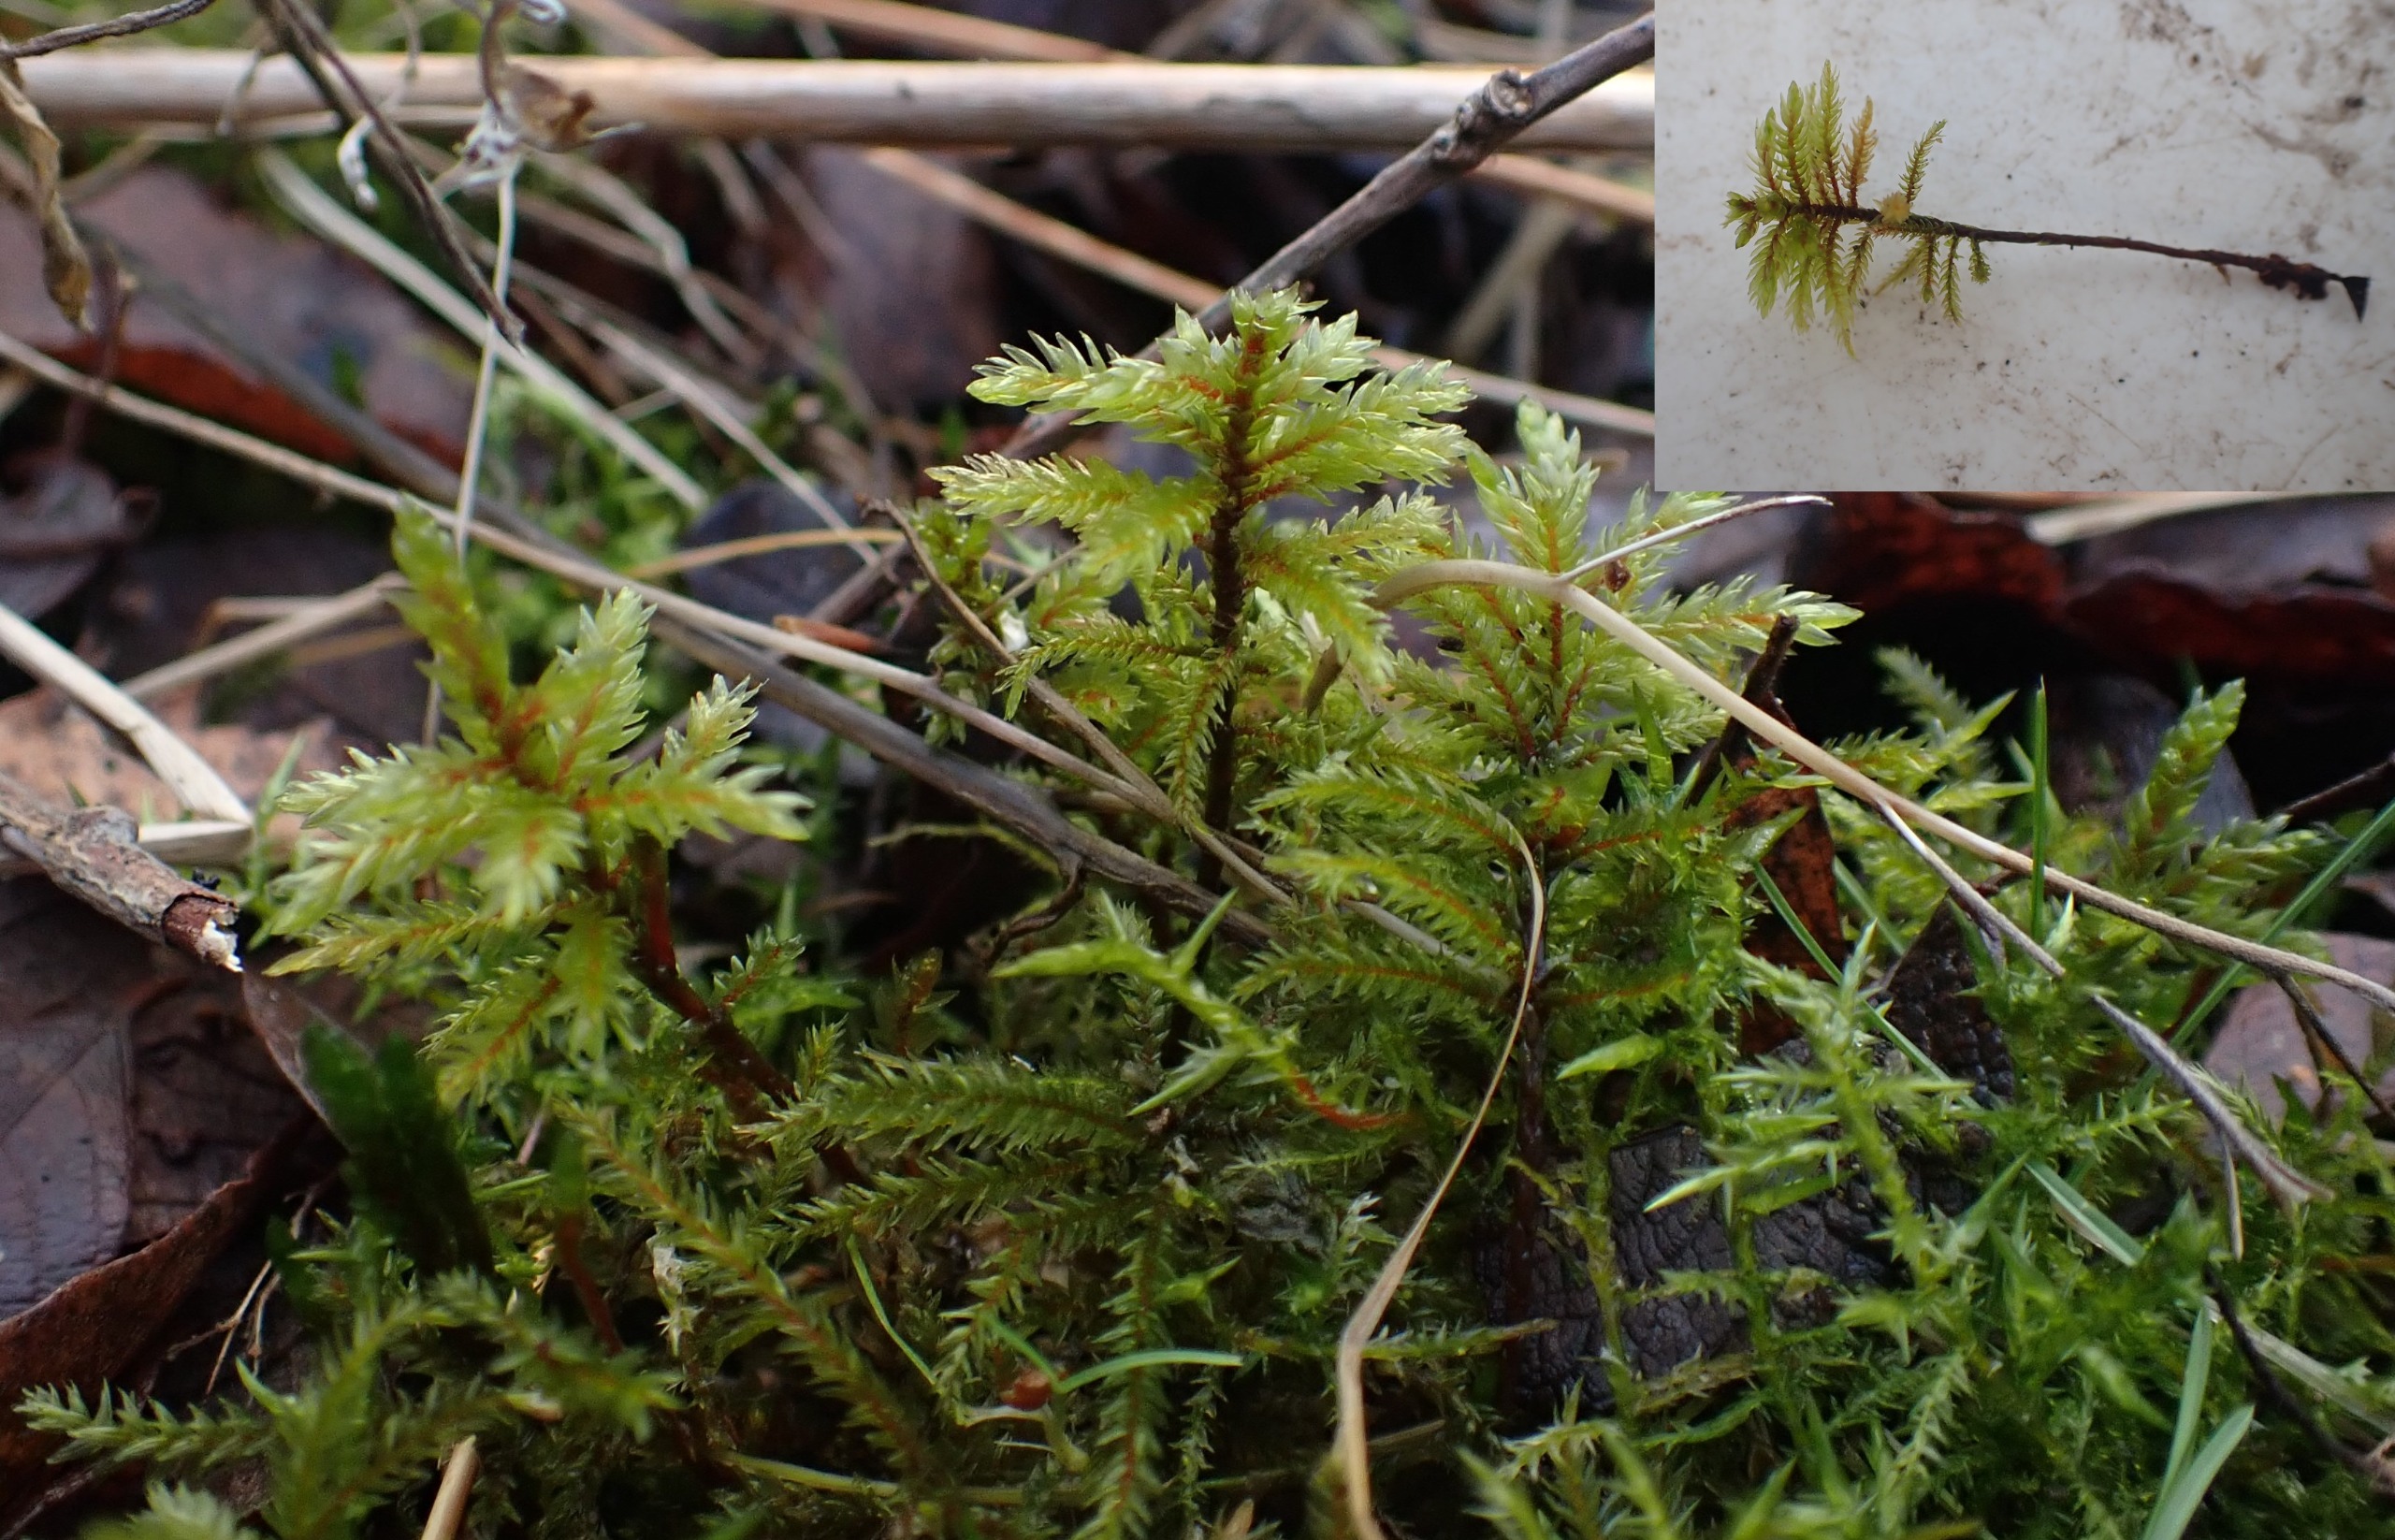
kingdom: Plantae
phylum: Bryophyta
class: Bryopsida
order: Hypnales
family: Climaciaceae
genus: Climacium
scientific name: Climacium dendroides
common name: Stor engkost
